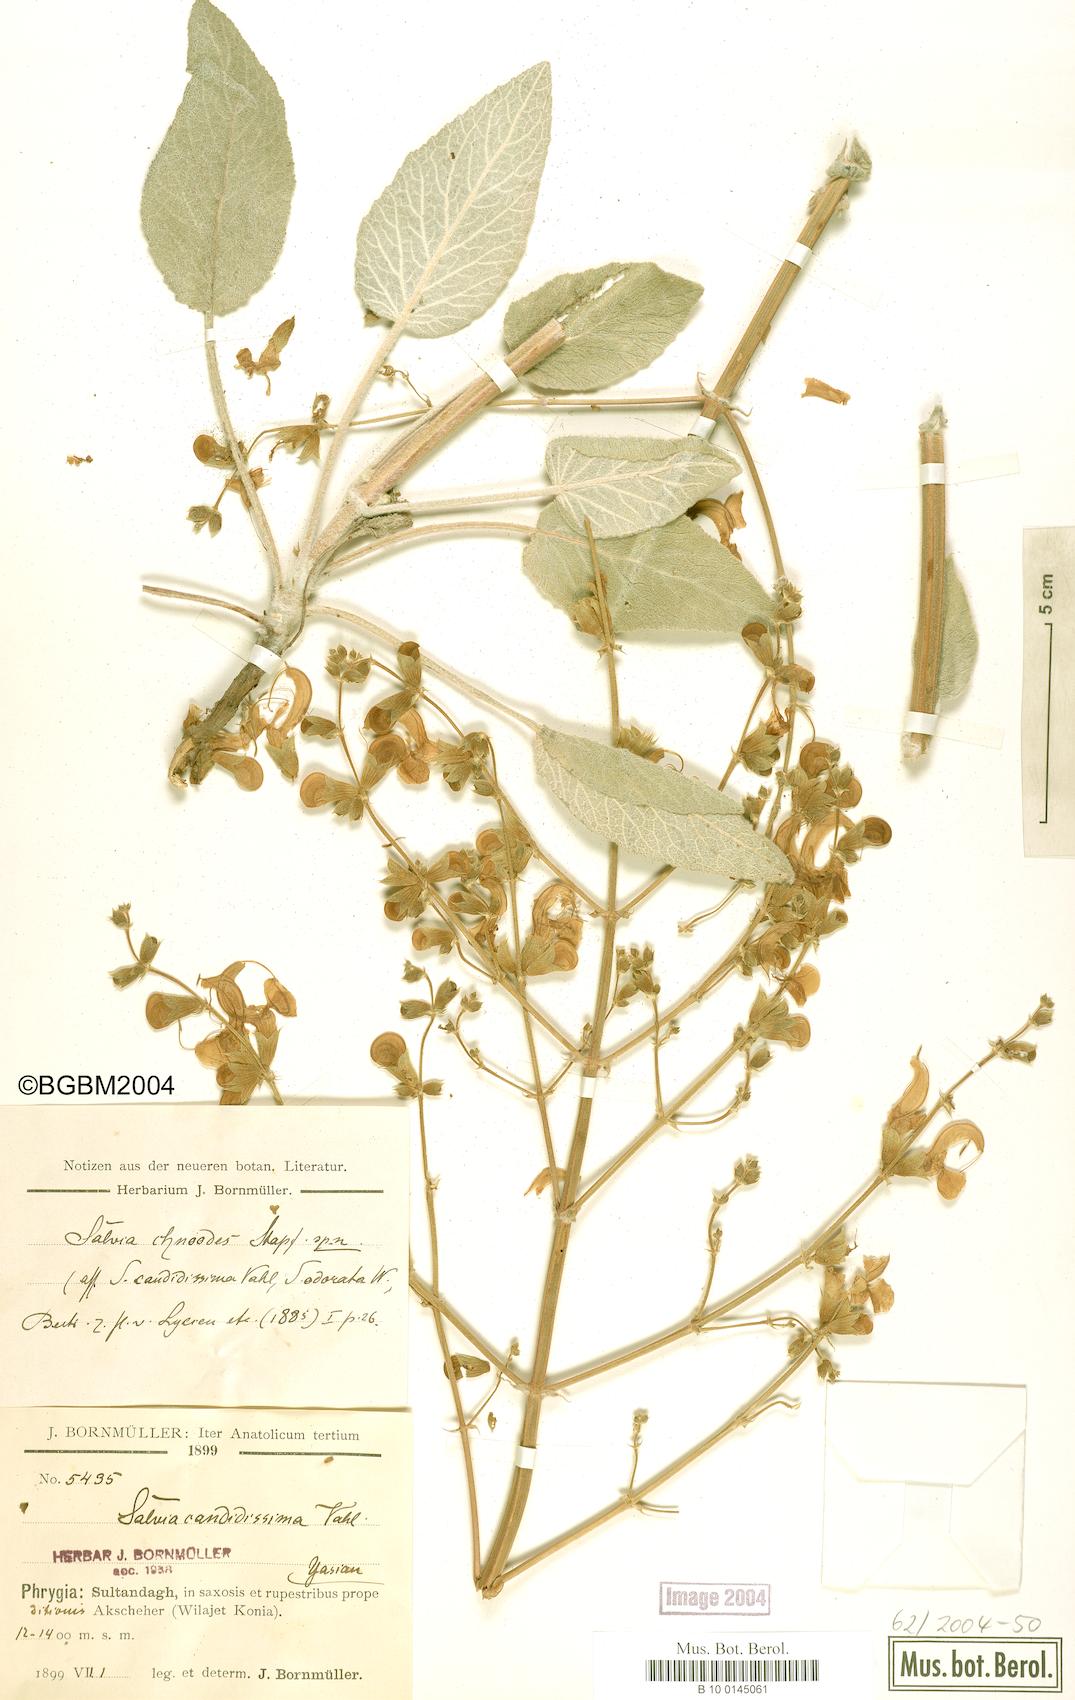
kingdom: Plantae
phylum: Tracheophyta
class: Magnoliopsida
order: Lamiales
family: Lamiaceae
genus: Salvia
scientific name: Salvia candidissima
